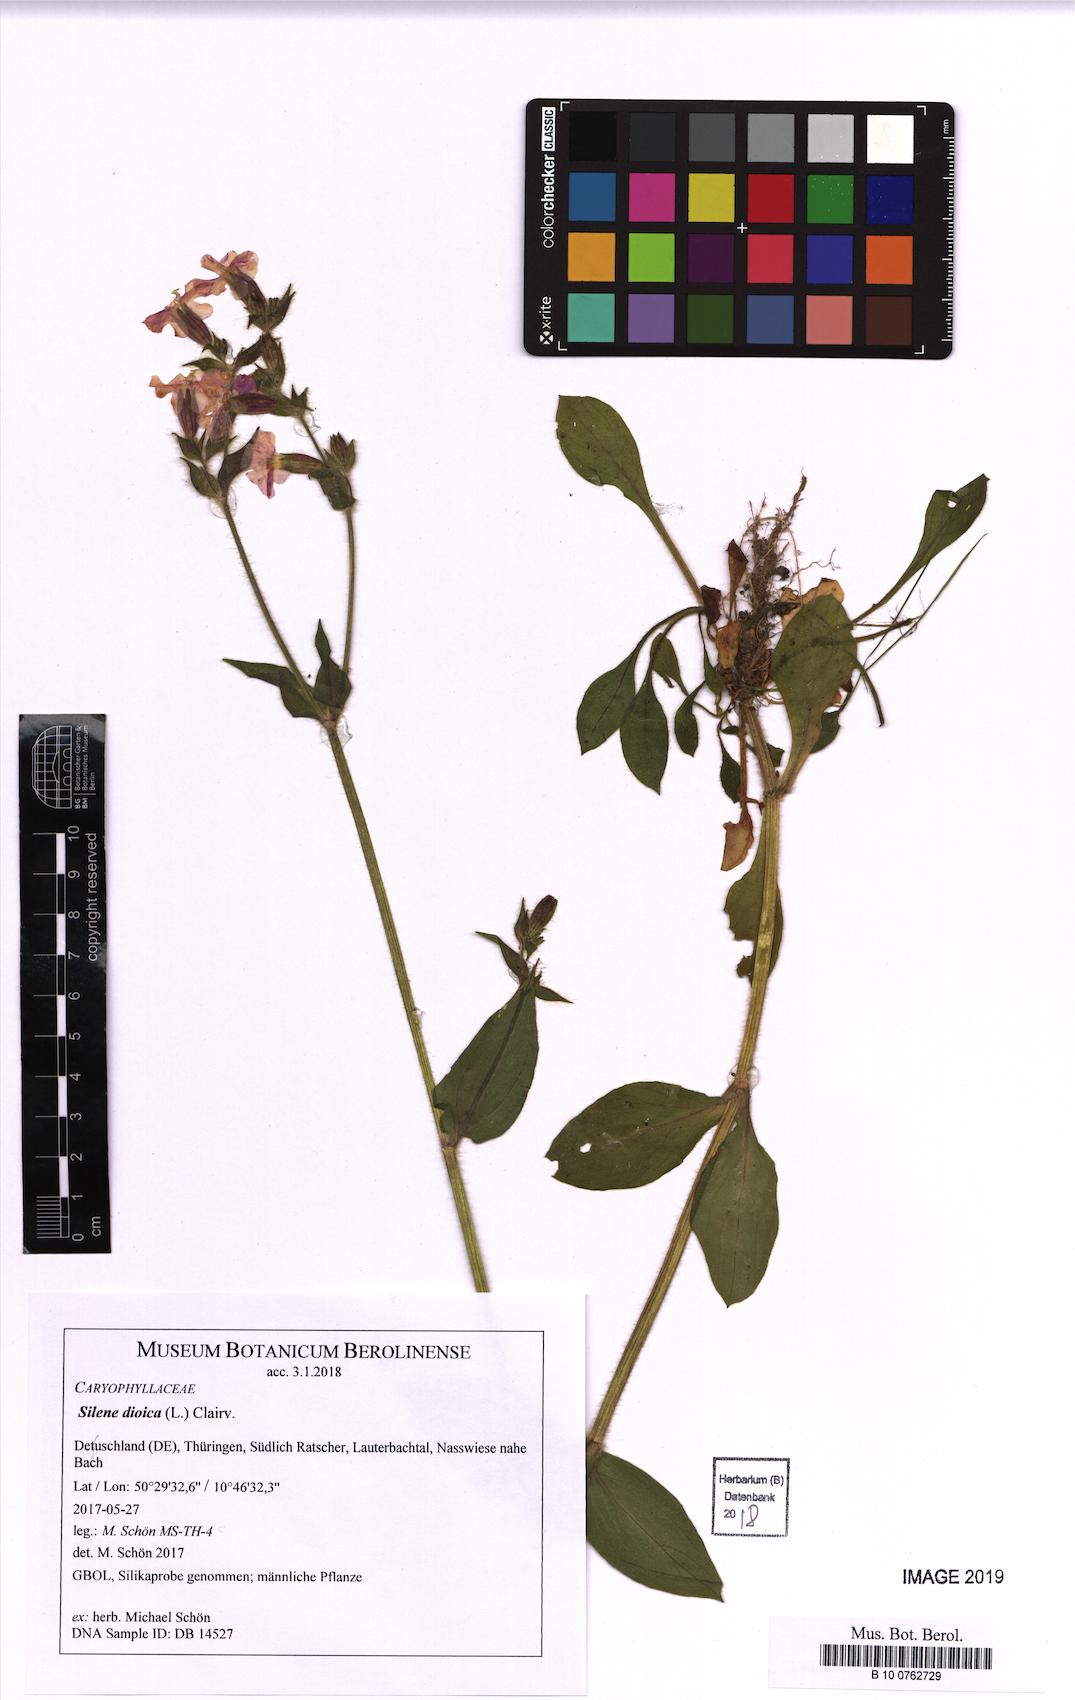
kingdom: Plantae
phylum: Tracheophyta
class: Magnoliopsida
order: Caryophyllales
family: Caryophyllaceae
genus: Silene
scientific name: Silene dioica
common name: Red campion
